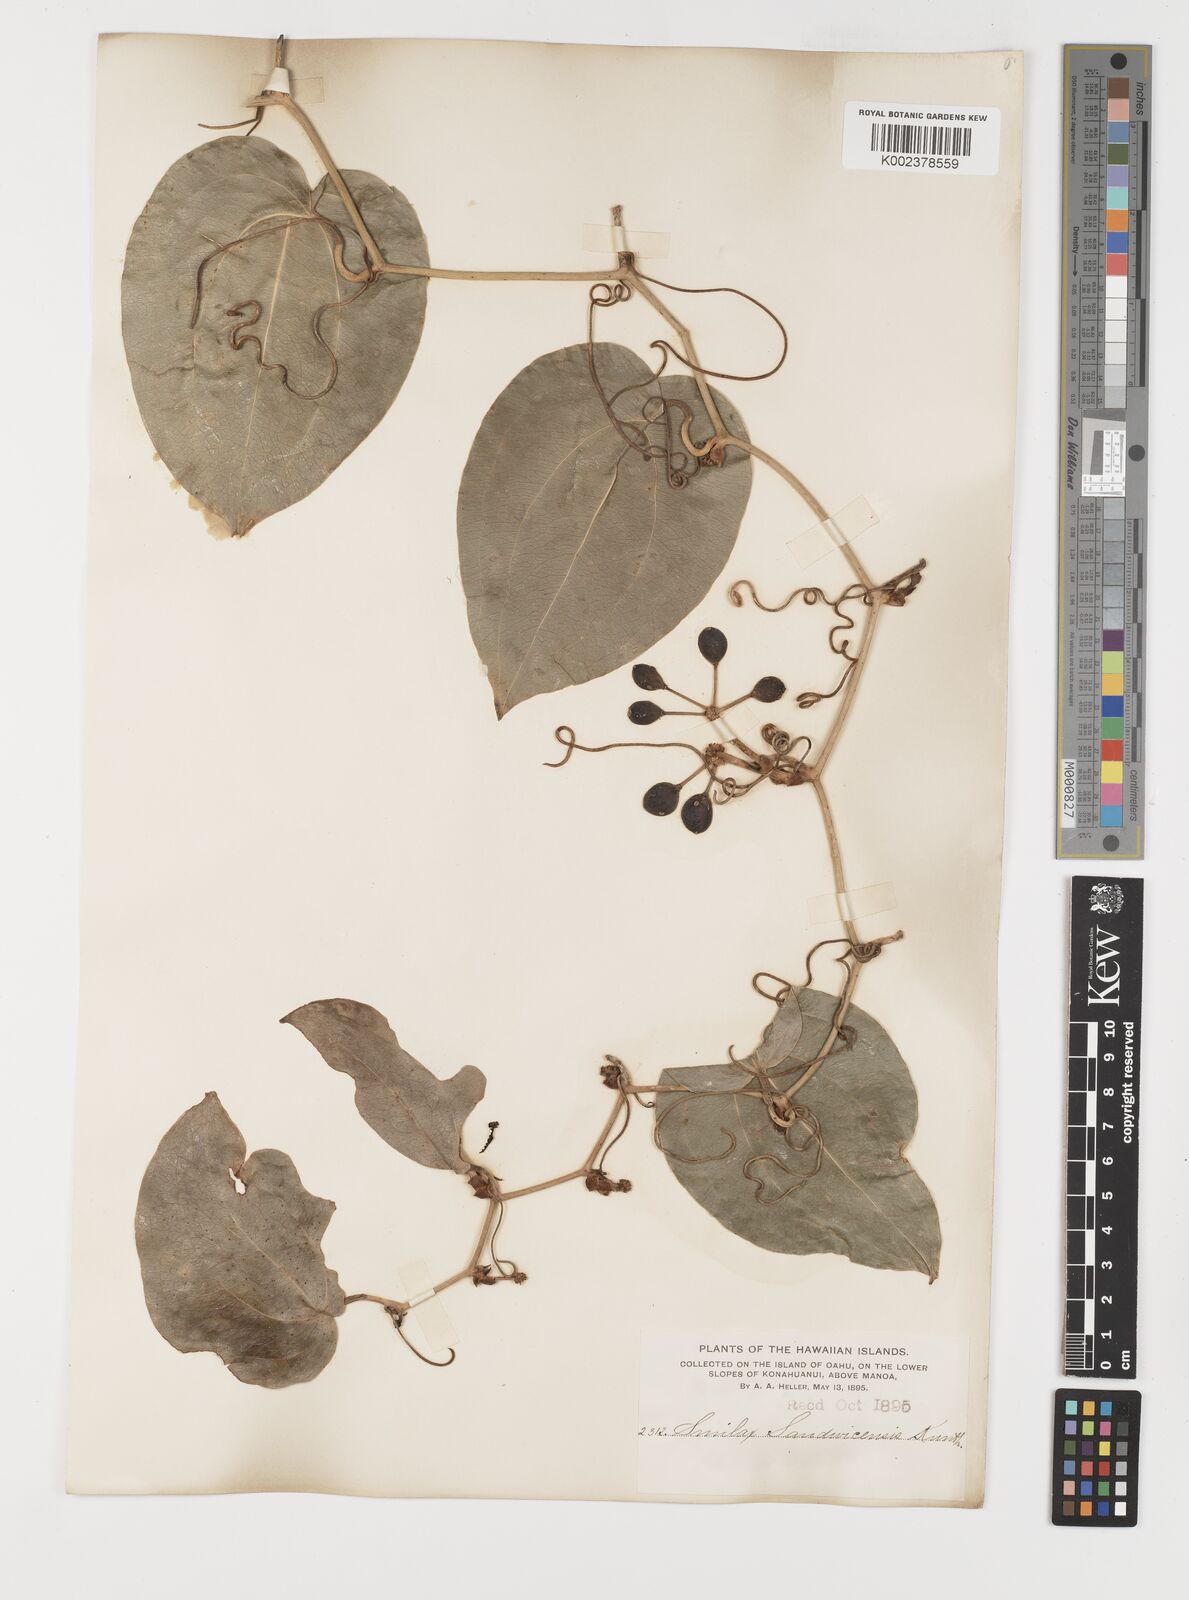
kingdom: Plantae
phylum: Tracheophyta
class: Liliopsida
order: Liliales
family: Smilacaceae
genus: Smilax
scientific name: Smilax melastomifolia
